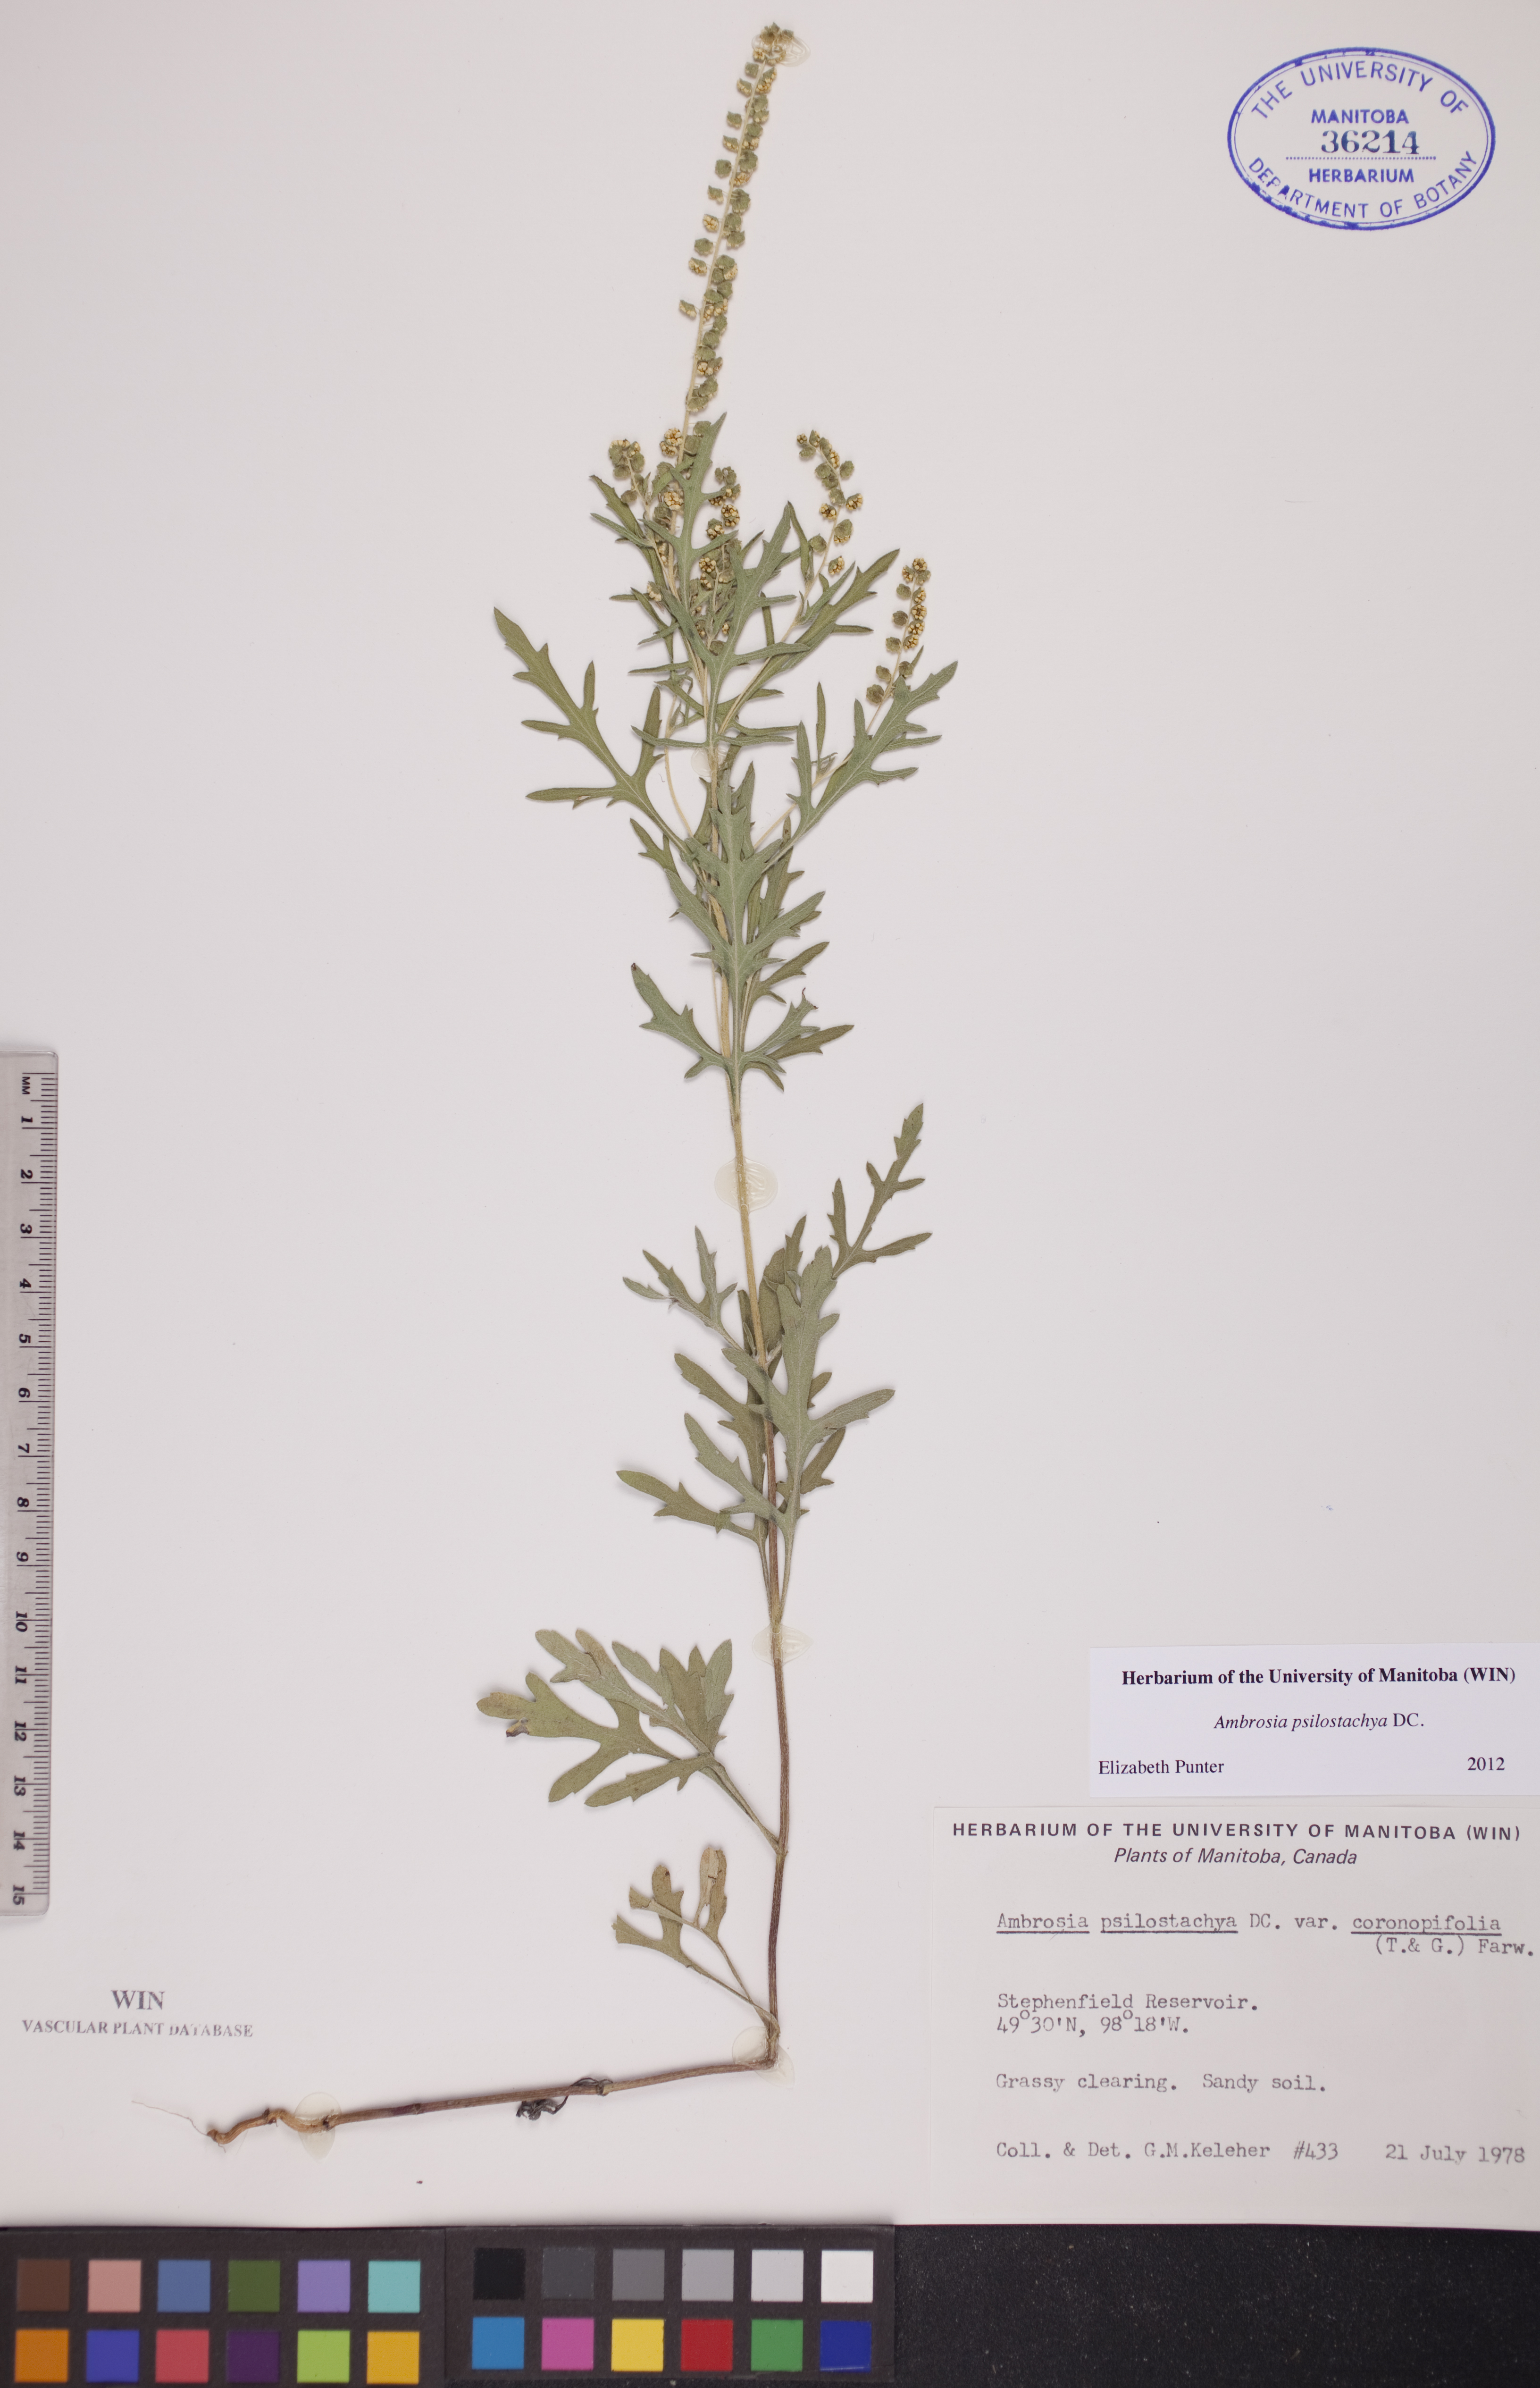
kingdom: Plantae
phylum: Tracheophyta
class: Magnoliopsida
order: Asterales
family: Asteraceae
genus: Ambrosia
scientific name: Ambrosia psilostachya
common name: Perennial ragweed
